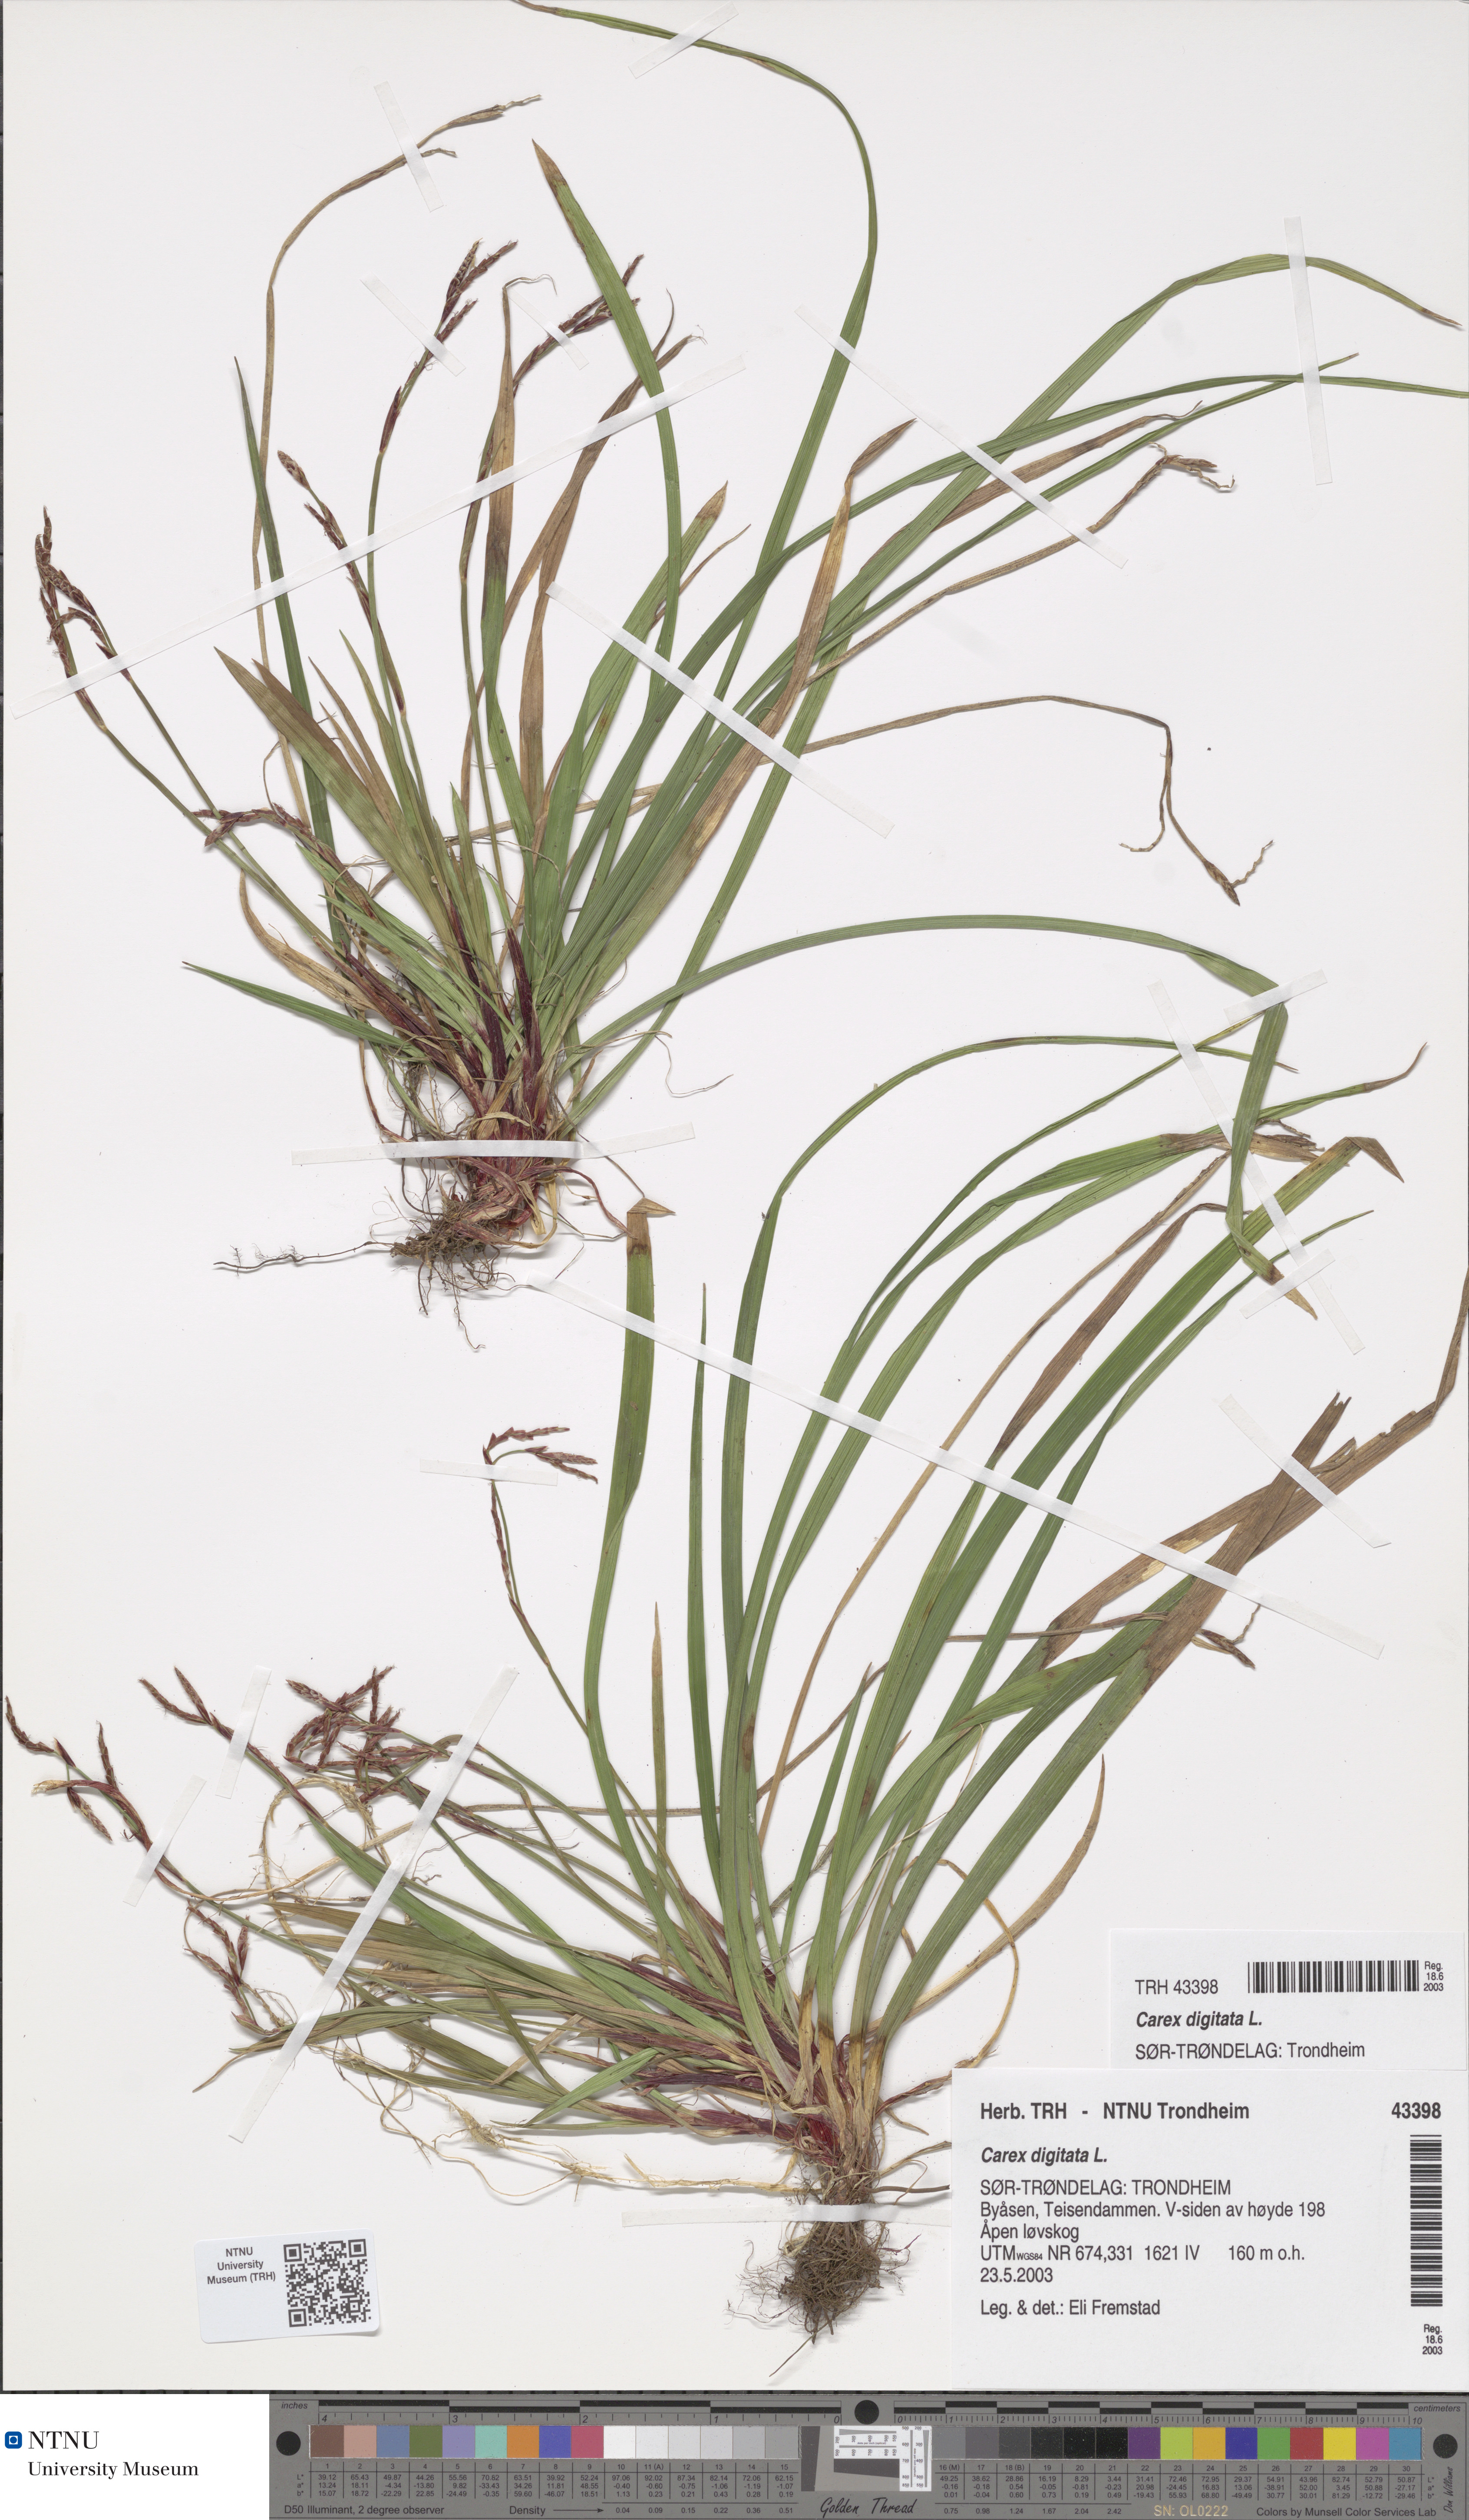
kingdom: Plantae
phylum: Tracheophyta
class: Liliopsida
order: Poales
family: Cyperaceae
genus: Carex
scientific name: Carex digitata
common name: Fingered sedge
